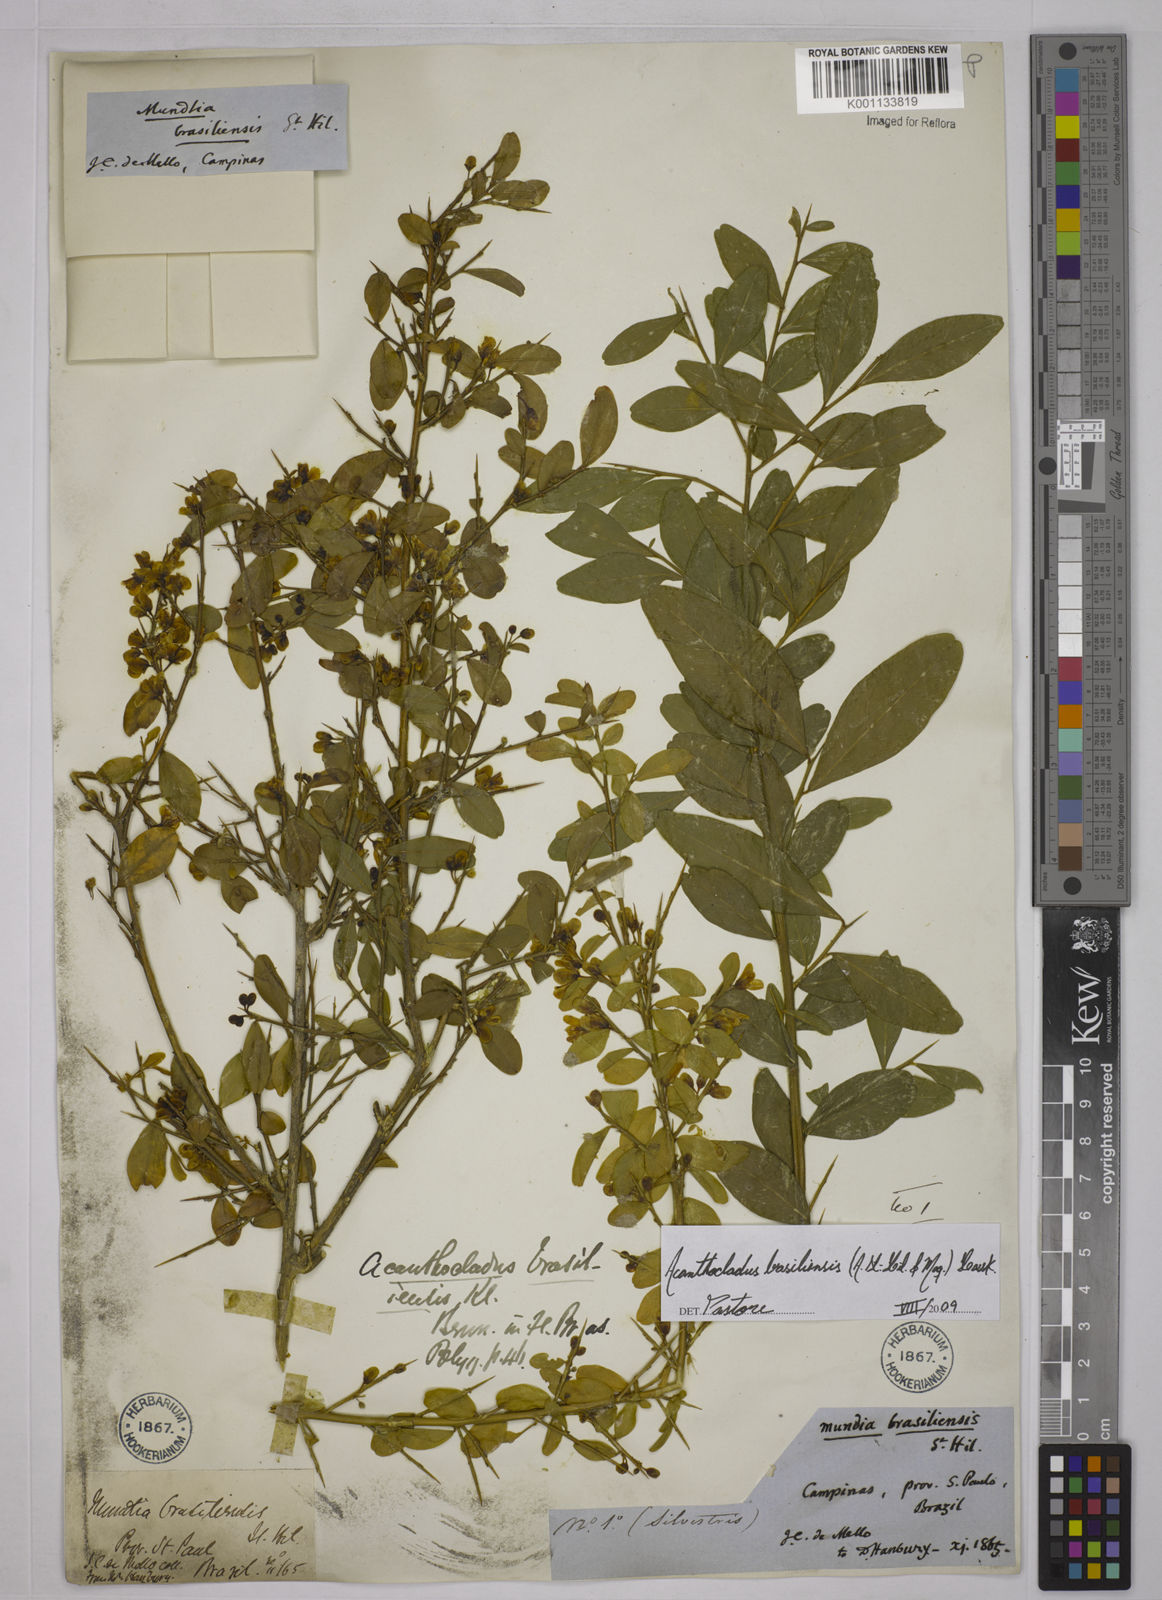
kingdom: Plantae
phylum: Tracheophyta
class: Magnoliopsida
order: Fabales
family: Polygalaceae
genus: Acanthocladus
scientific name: Acanthocladus brasiliensis
